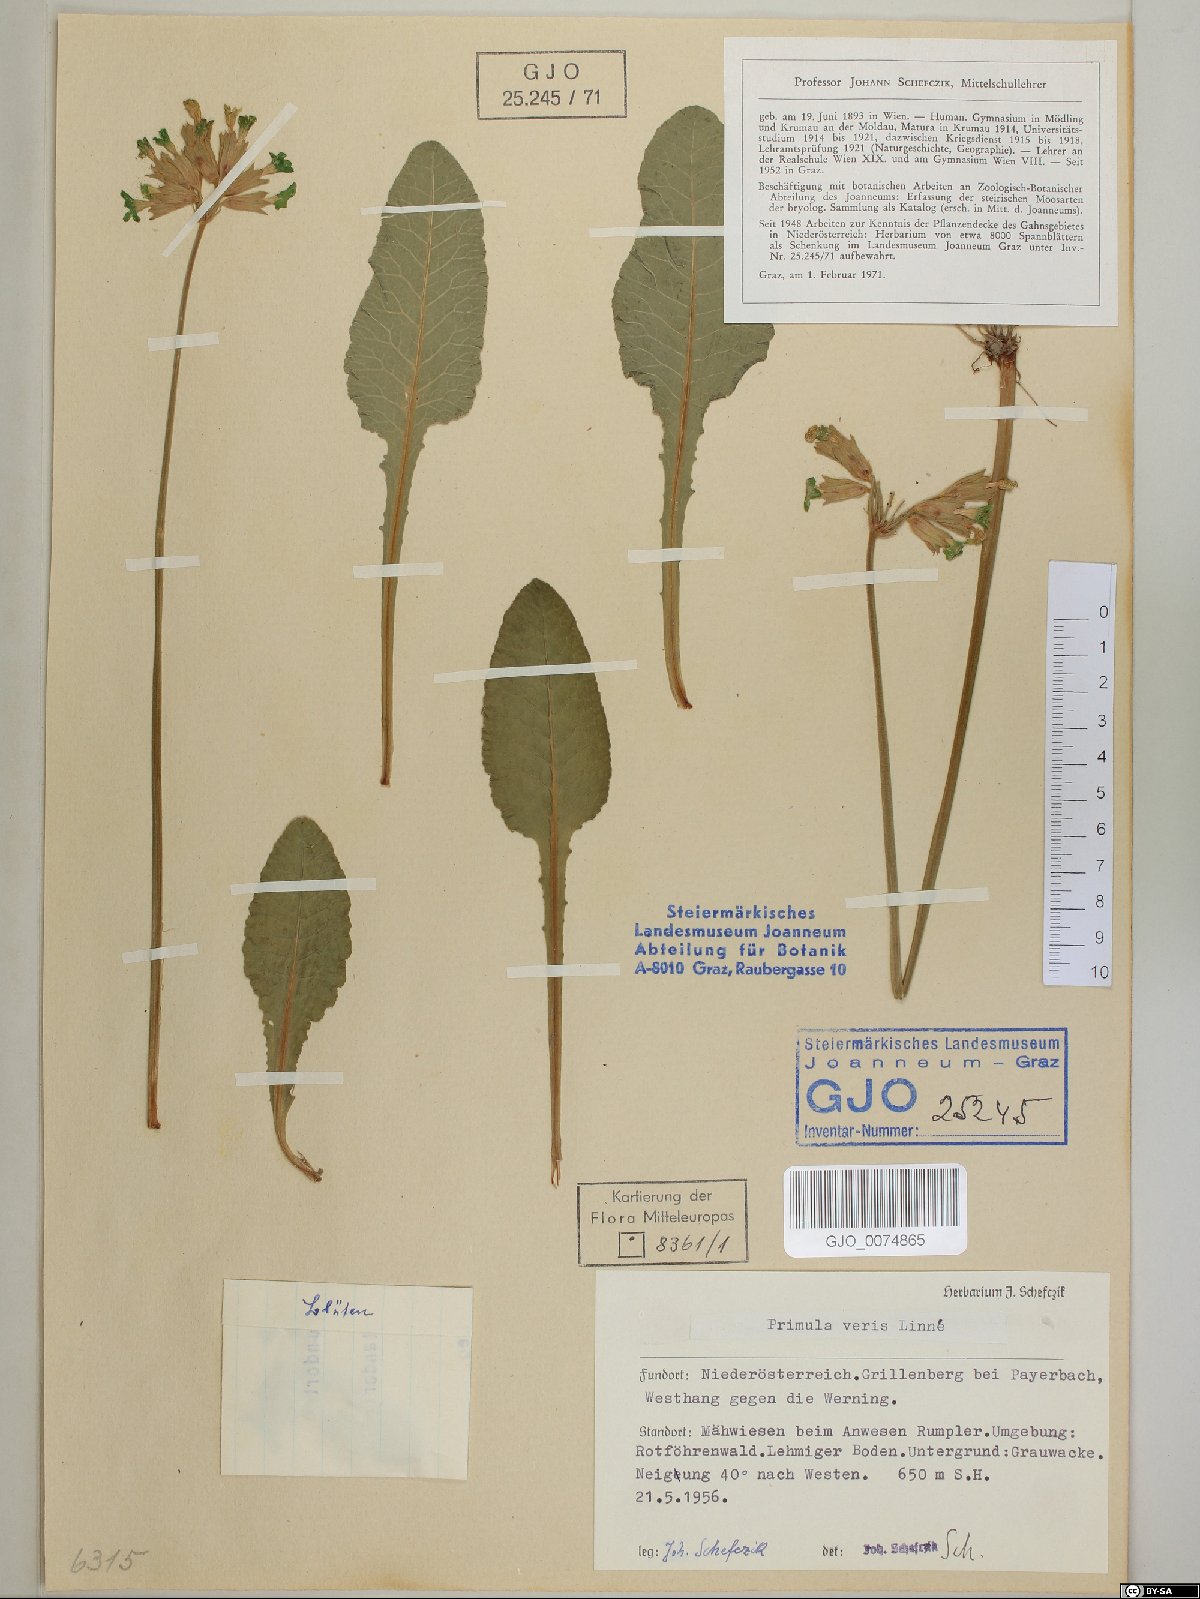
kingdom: Plantae
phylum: Tracheophyta
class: Magnoliopsida
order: Ericales
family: Primulaceae
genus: Primula
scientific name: Primula veris
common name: Cowslip
